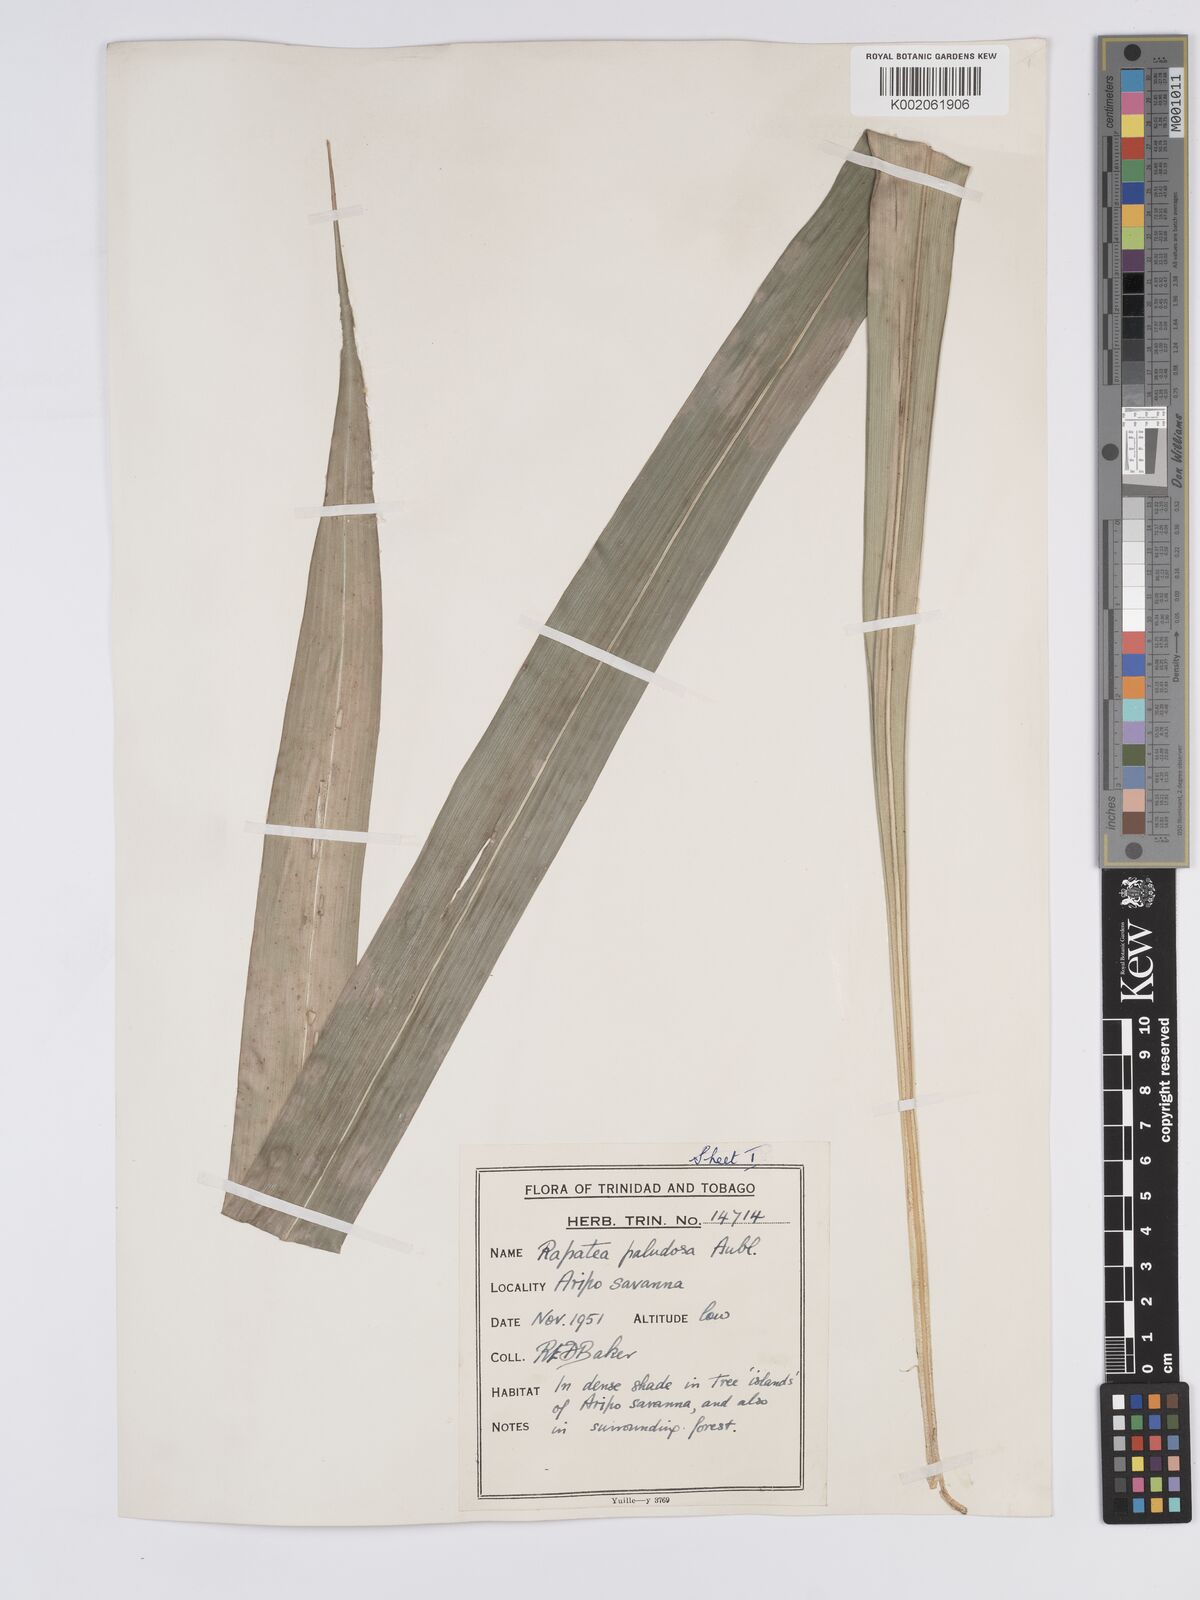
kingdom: Plantae
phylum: Tracheophyta
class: Liliopsida
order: Poales
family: Rapateaceae
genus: Rapatea
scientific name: Rapatea paludosa
